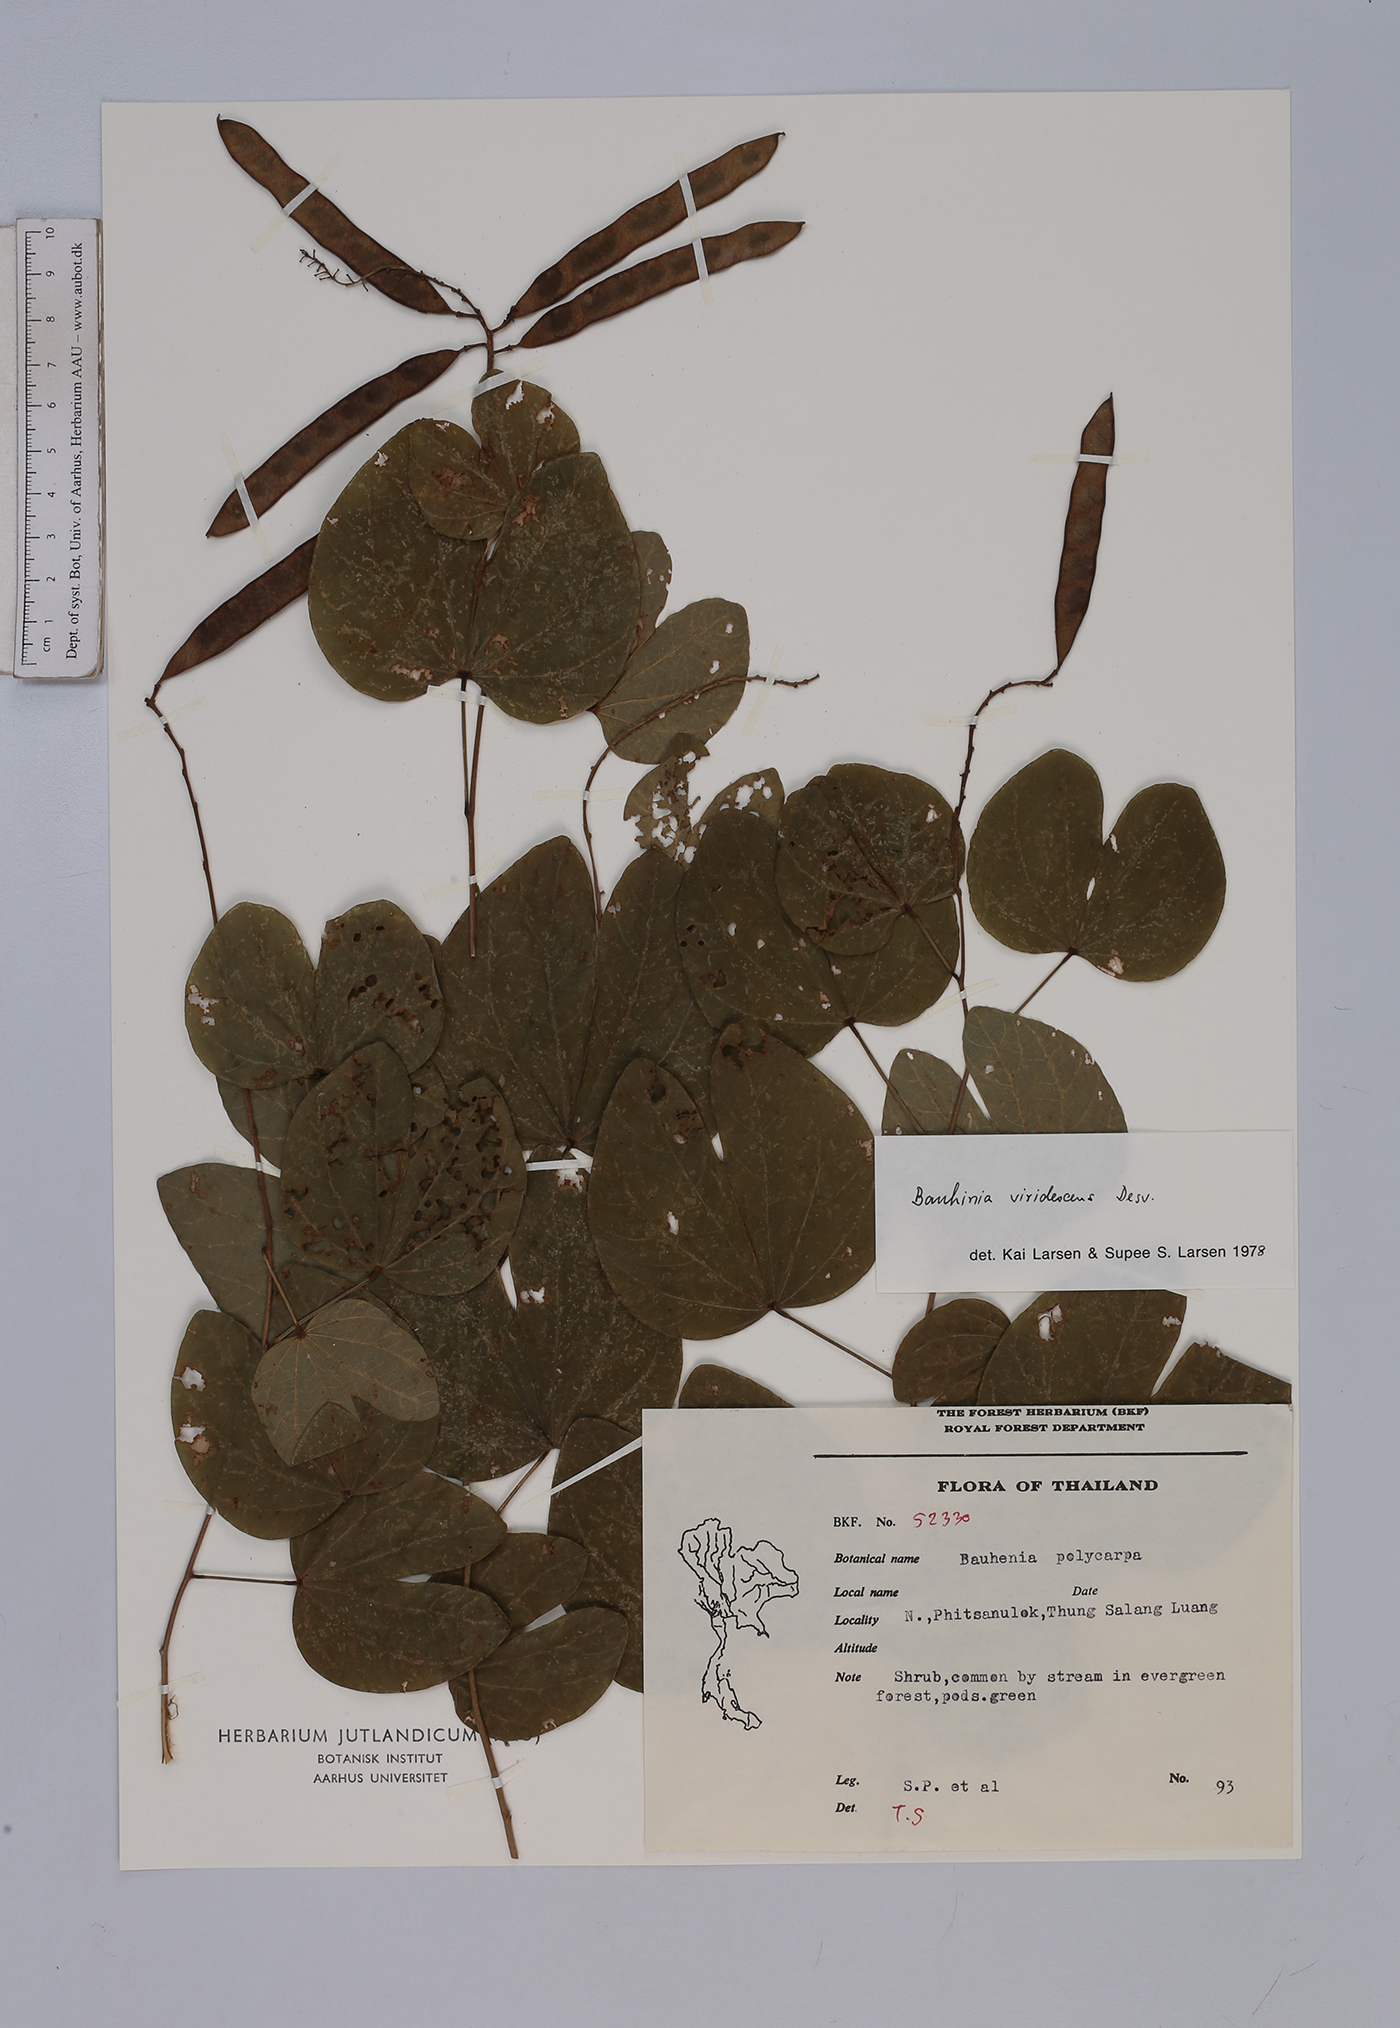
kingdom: Plantae
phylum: Tracheophyta
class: Magnoliopsida
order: Fabales
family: Fabaceae
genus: Bauhinia
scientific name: Bauhinia viridescens
